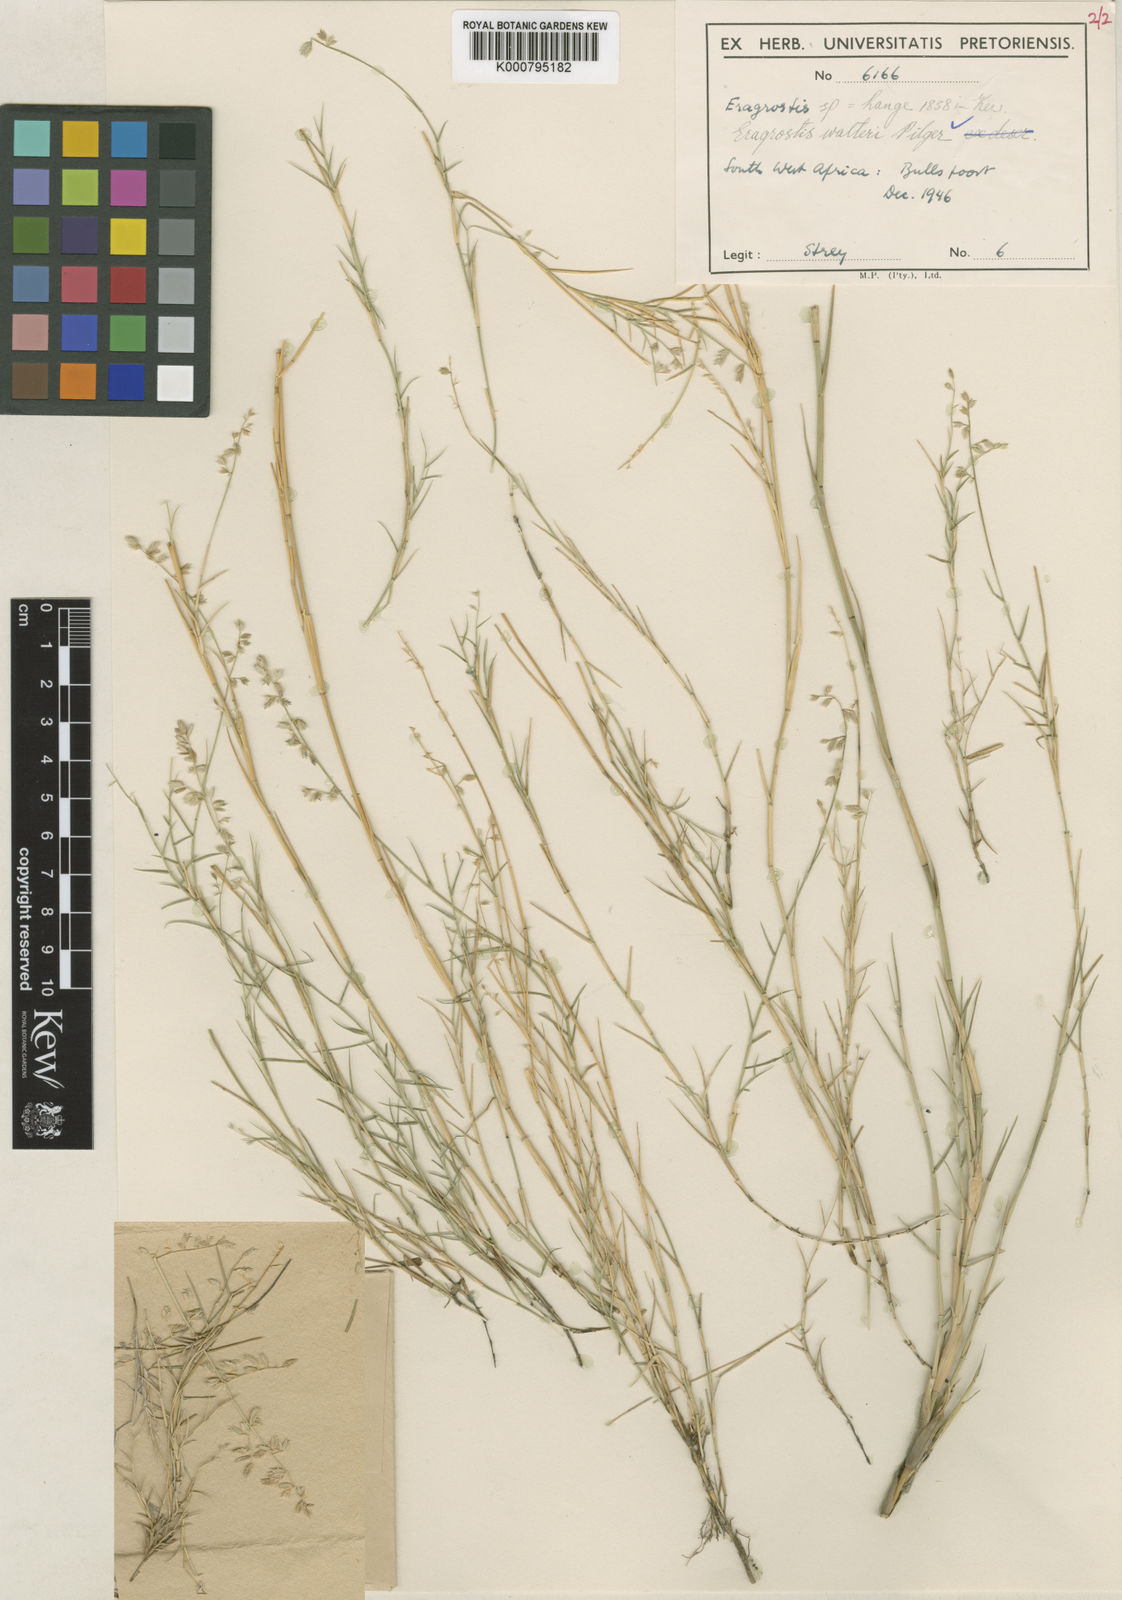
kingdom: Plantae
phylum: Tracheophyta
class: Liliopsida
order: Poales
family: Poaceae
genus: Pratochloa
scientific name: Pratochloa walteri
